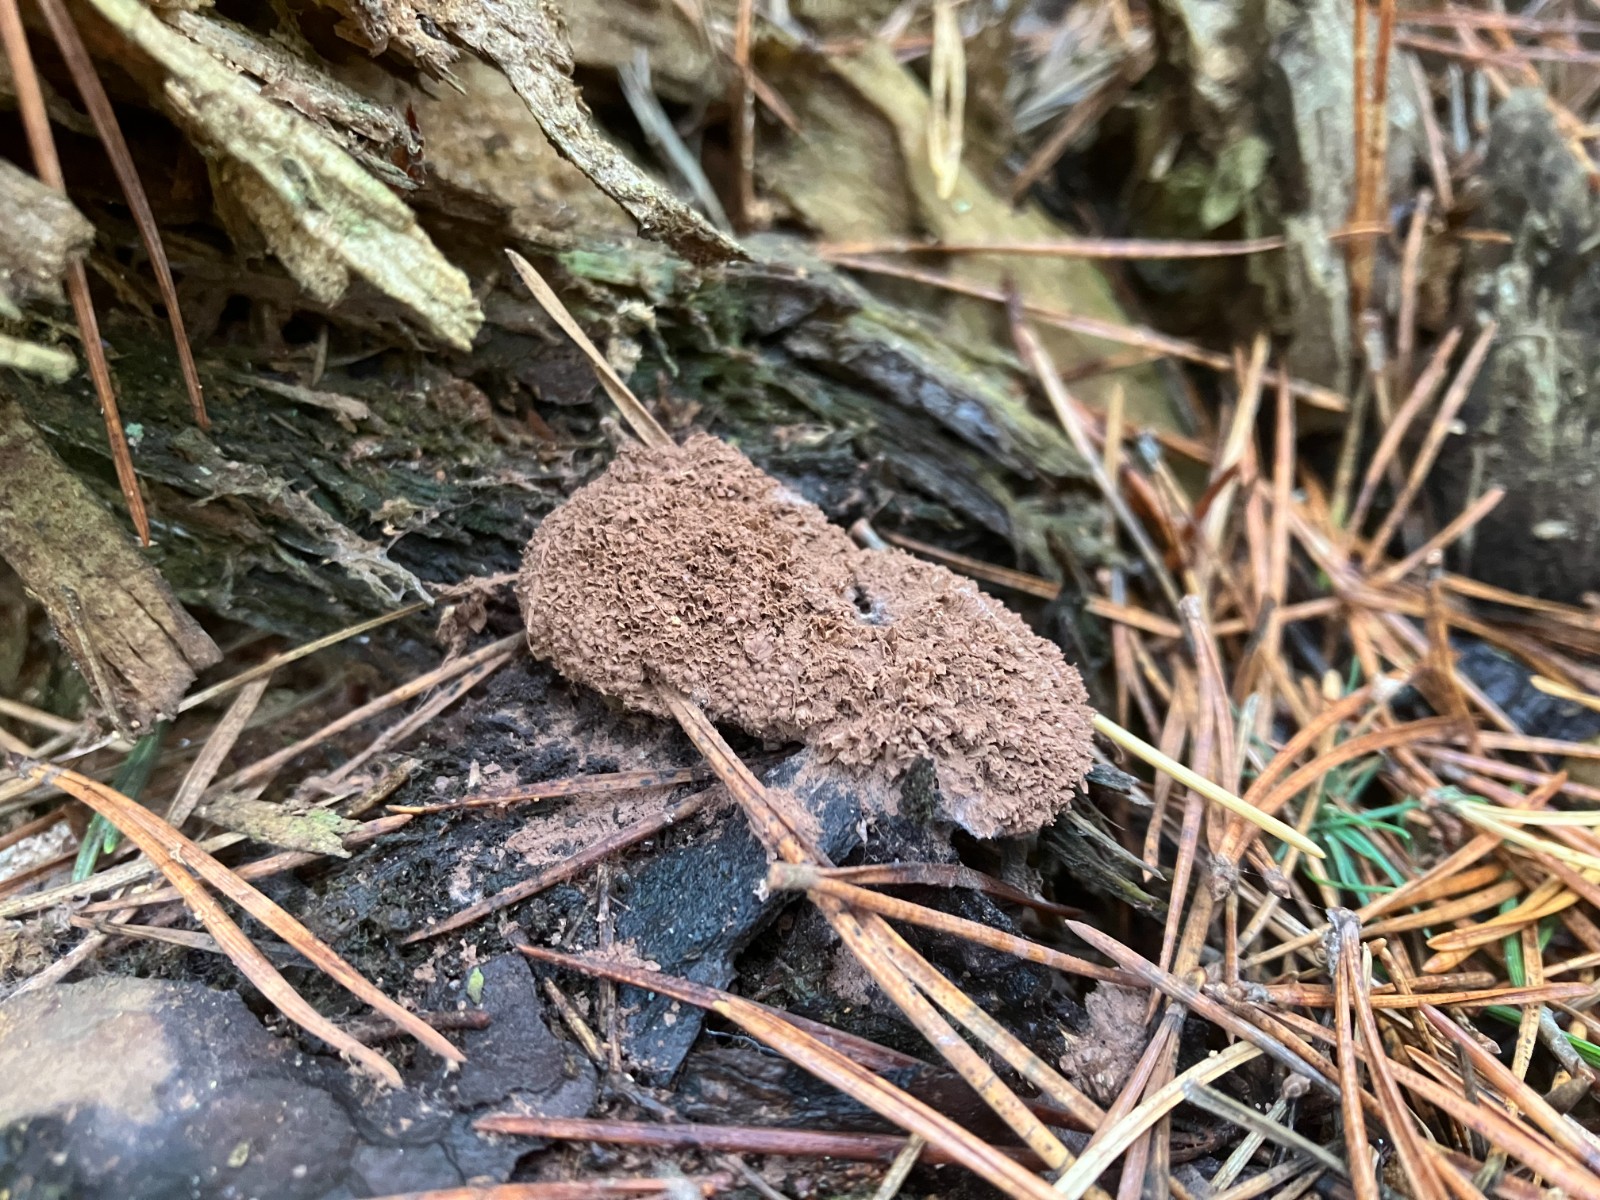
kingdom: Protozoa
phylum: Mycetozoa
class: Myxomycetes
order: Cribrariales
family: Tubiferaceae
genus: Tubifera
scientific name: Tubifera ferruginosa
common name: kanel-støvrør
